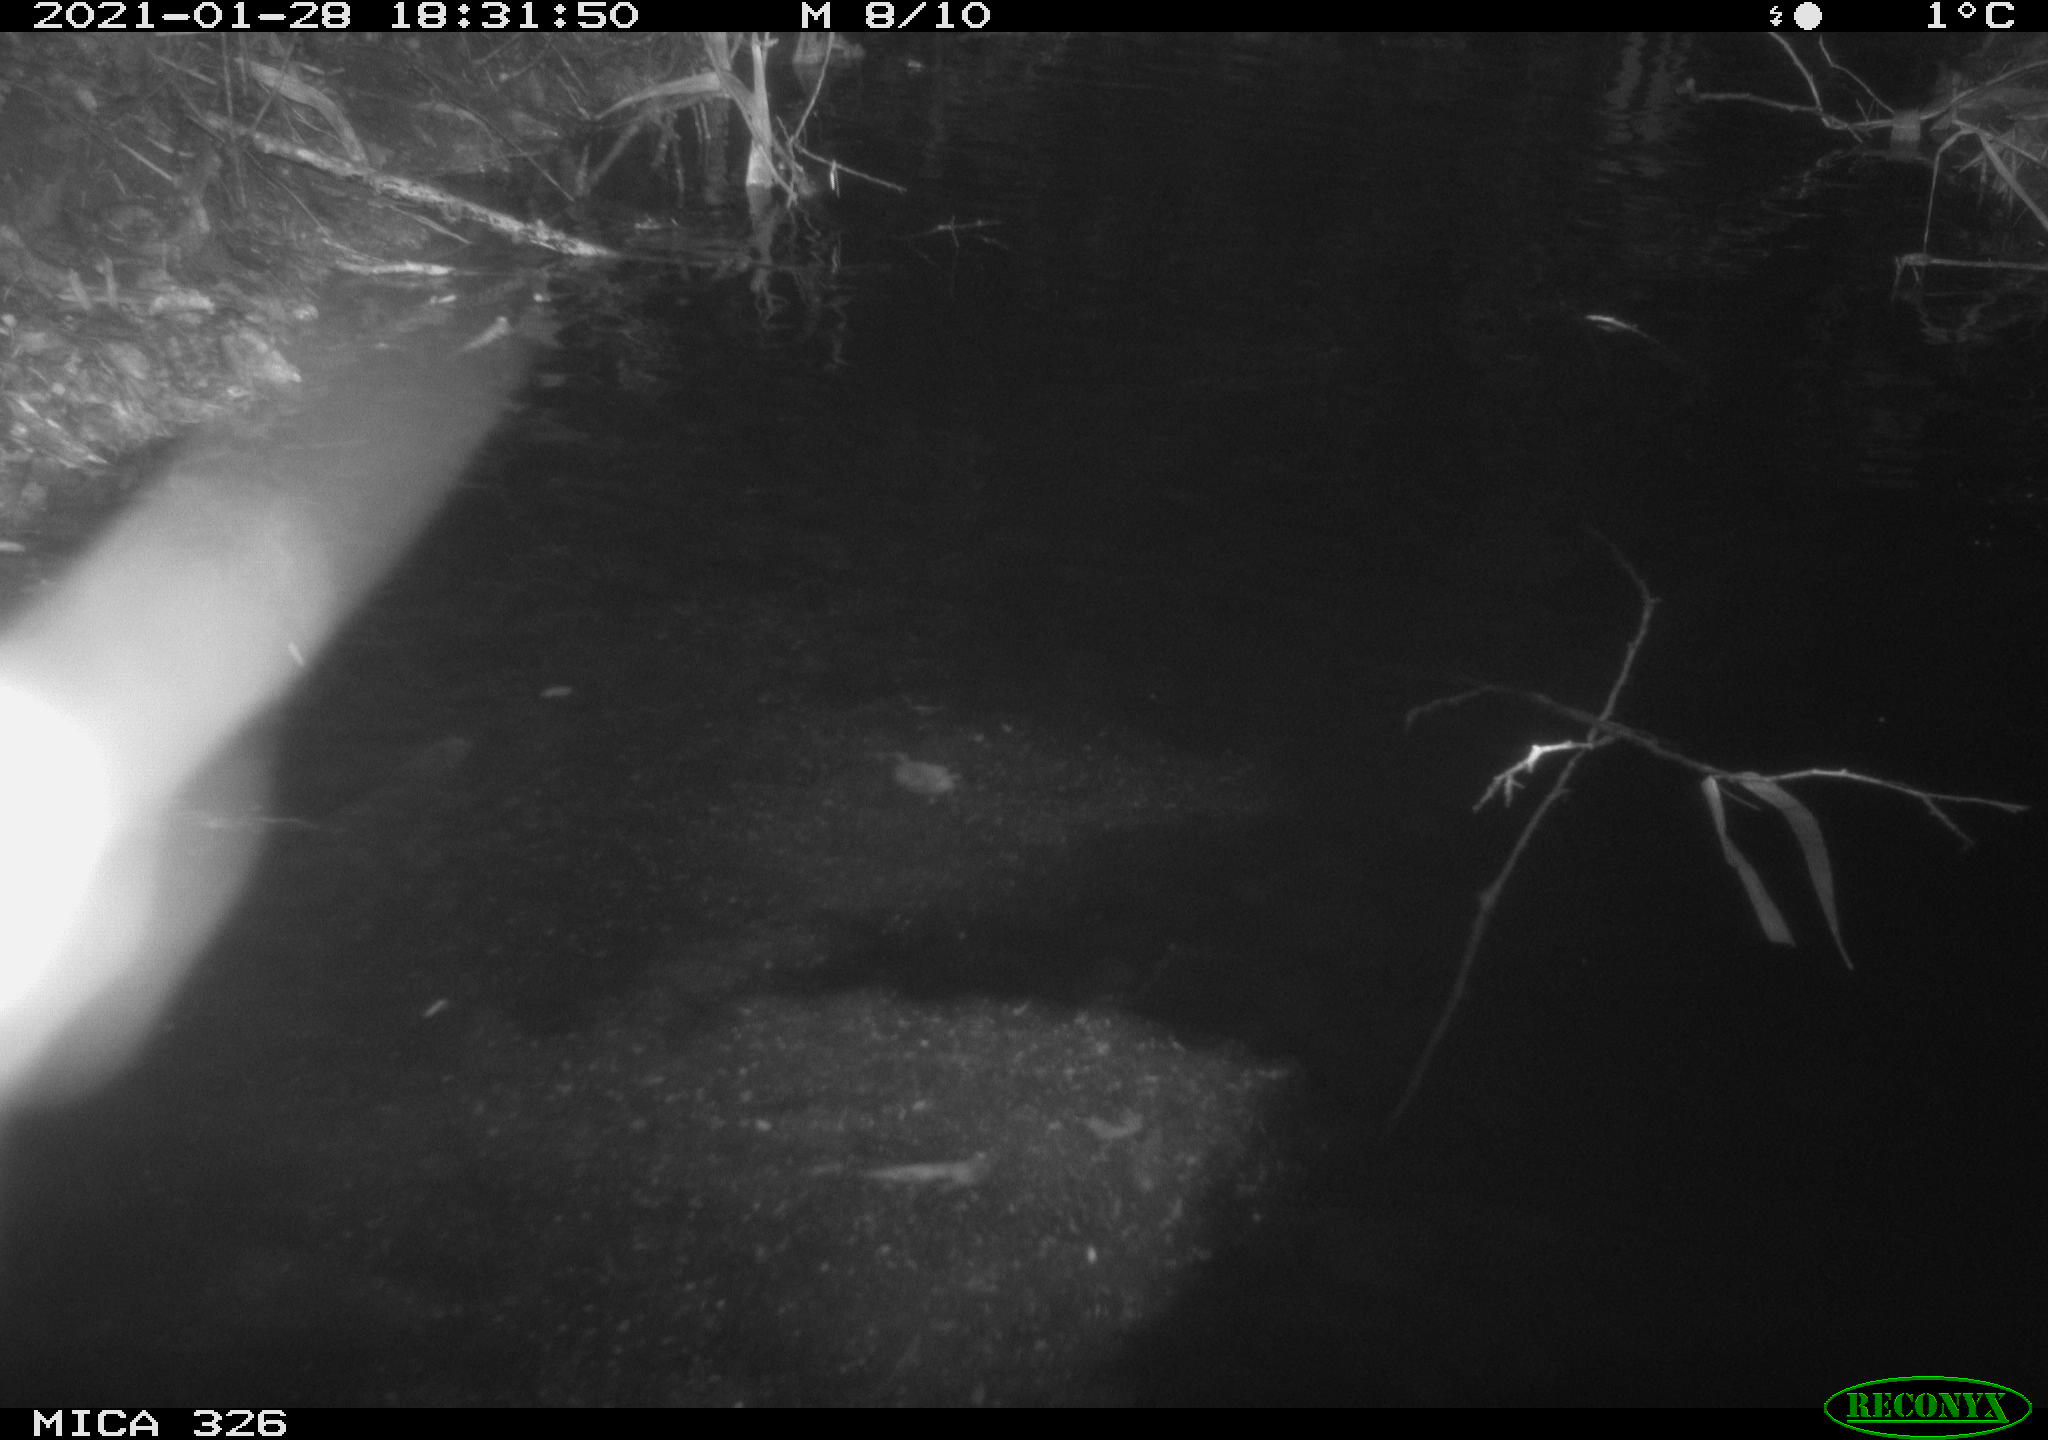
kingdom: Animalia
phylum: Chordata
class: Mammalia
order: Carnivora
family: Mustelidae
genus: Lutra
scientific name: Lutra lutra
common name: European otter
